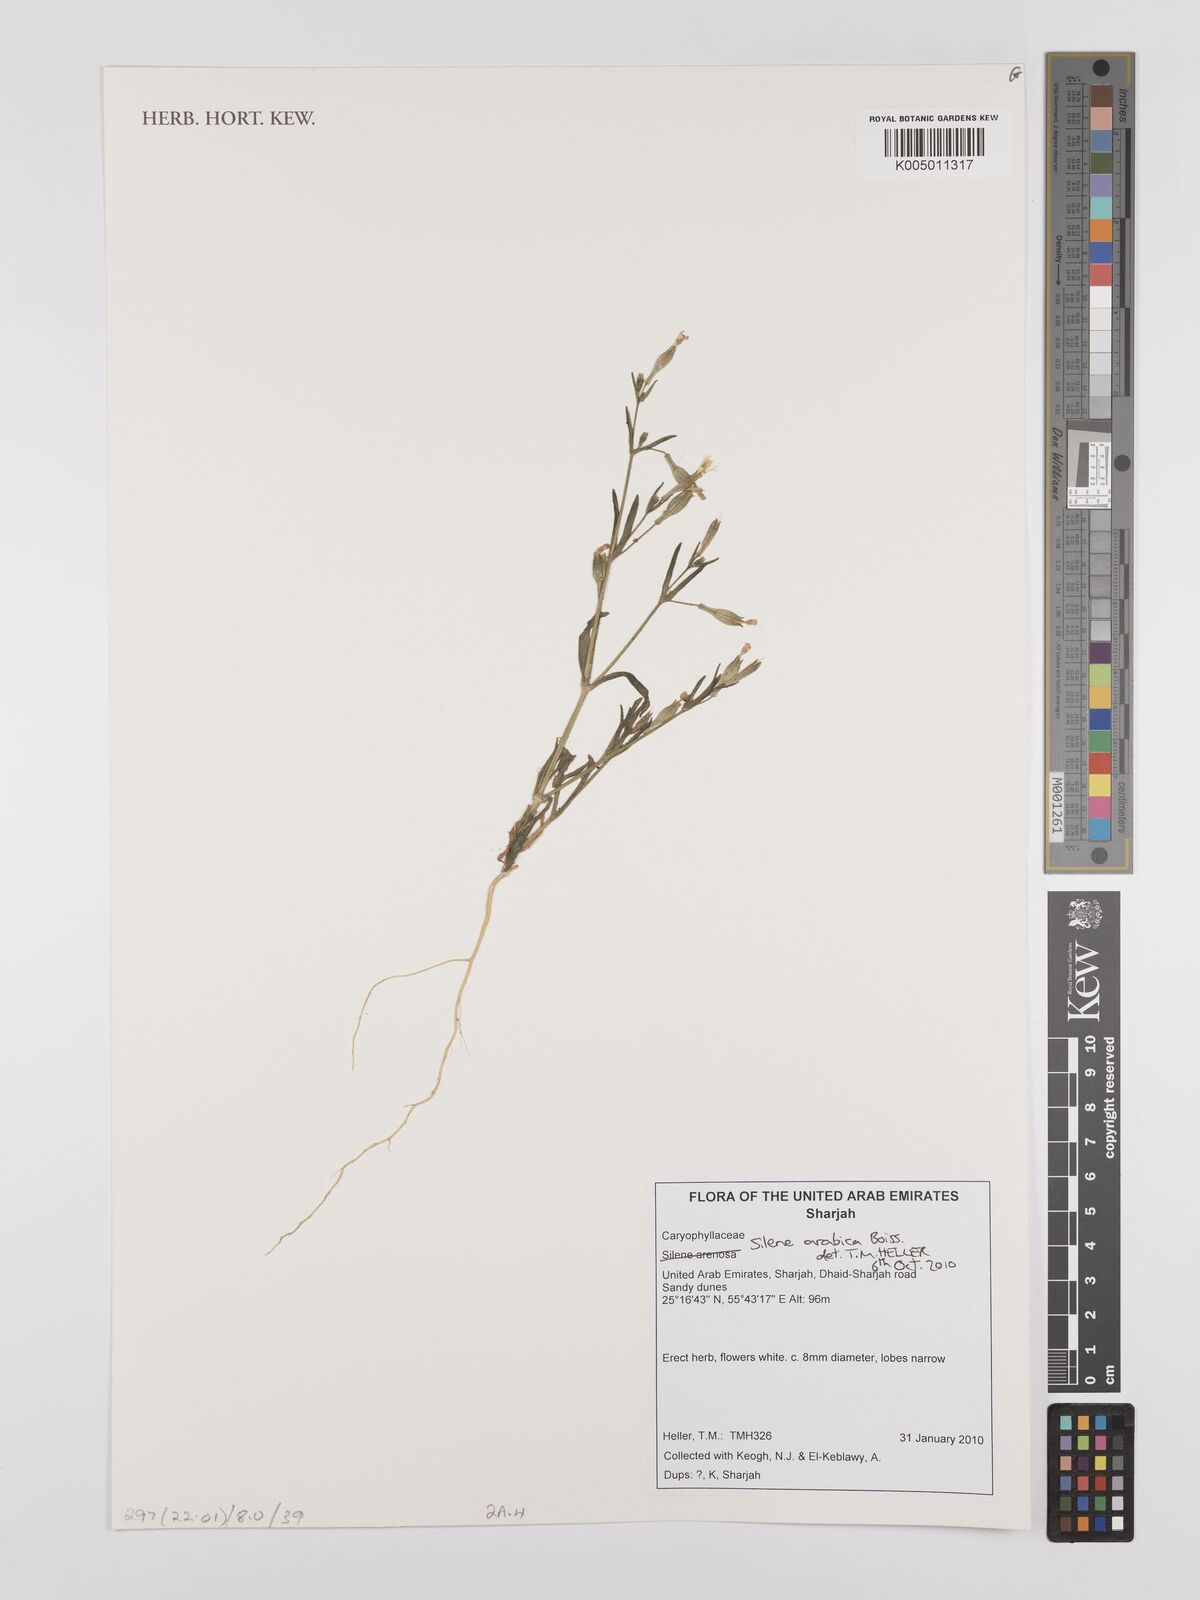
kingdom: Plantae
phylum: Tracheophyta
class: Magnoliopsida
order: Caryophyllales
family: Caryophyllaceae
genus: Silene
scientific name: Silene arabica
